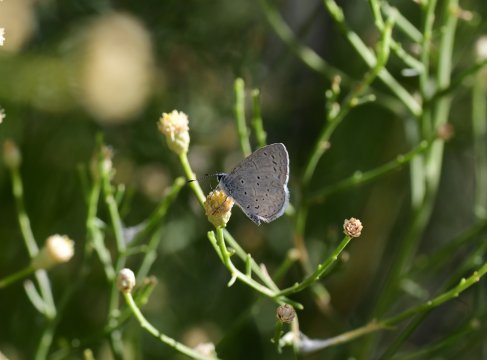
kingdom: Animalia
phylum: Arthropoda
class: Insecta
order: Lepidoptera
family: Lycaenidae
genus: Celastrina
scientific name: Celastrina ladon
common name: Echo Azure
